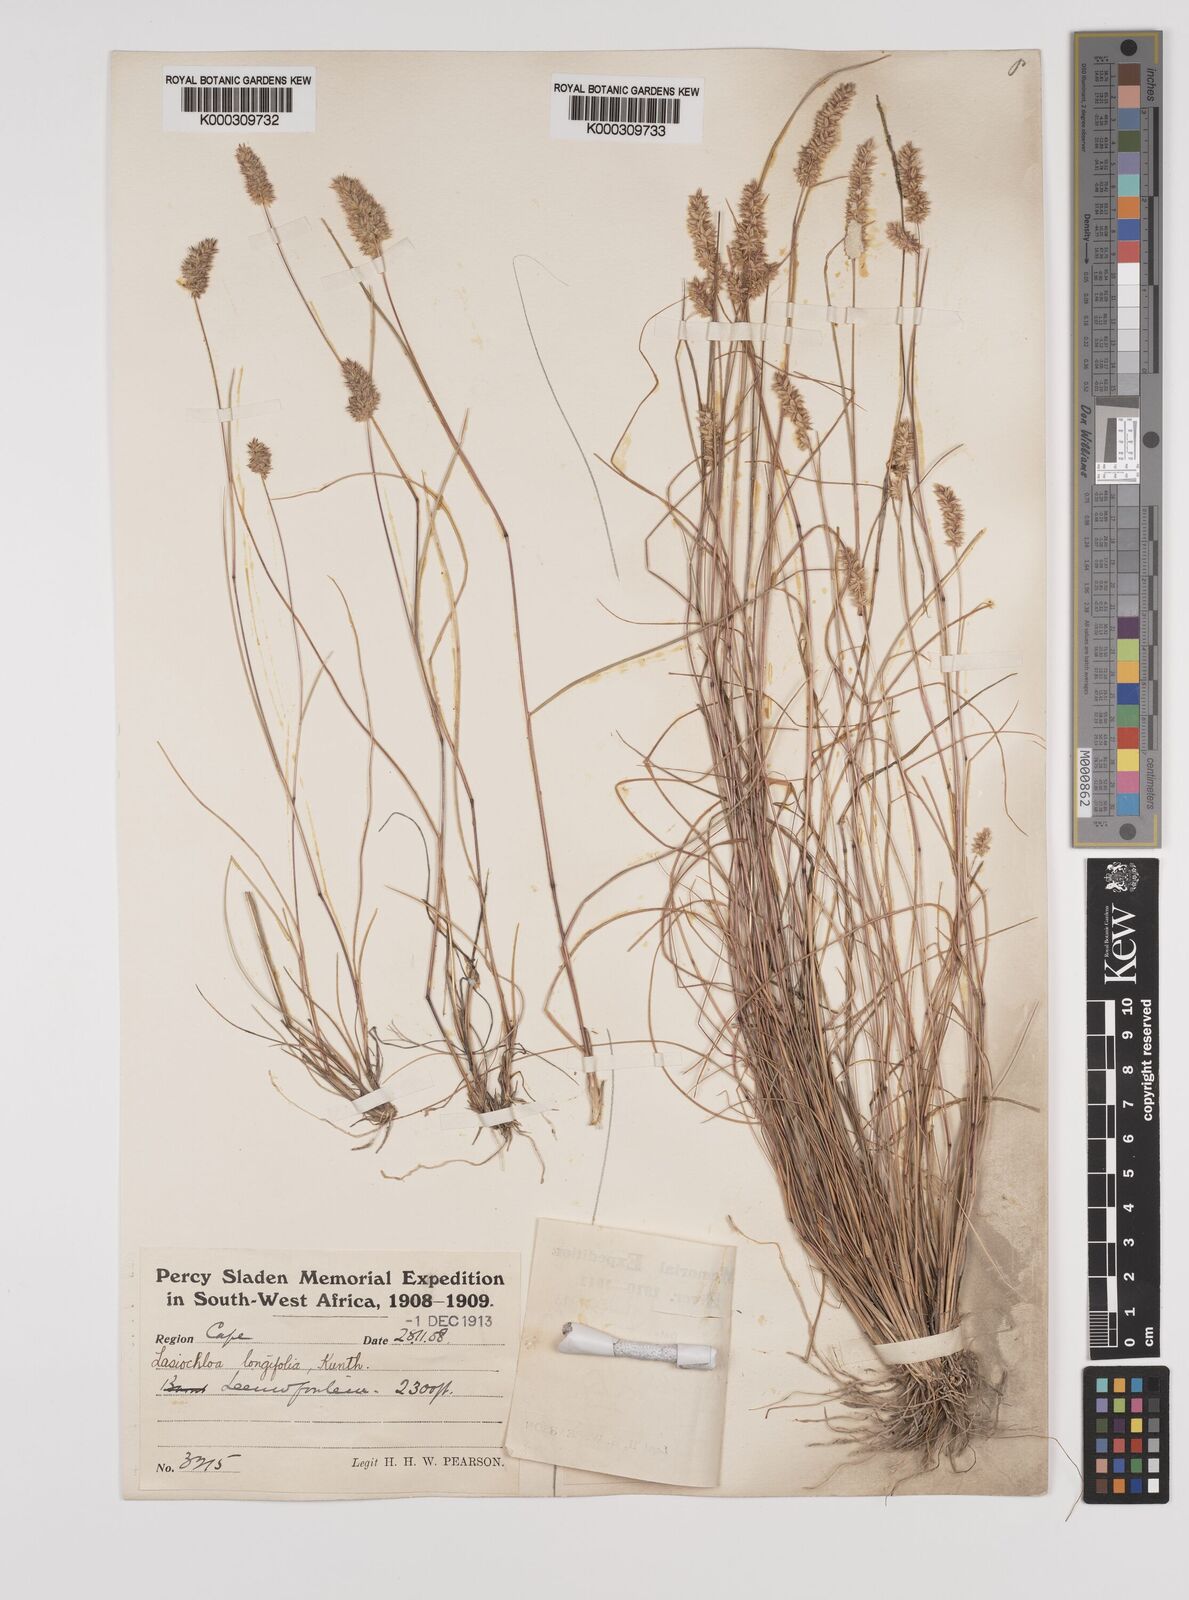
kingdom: Plantae
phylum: Tracheophyta
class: Liliopsida
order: Poales
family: Poaceae
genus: Tribolium
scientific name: Tribolium hispidum
